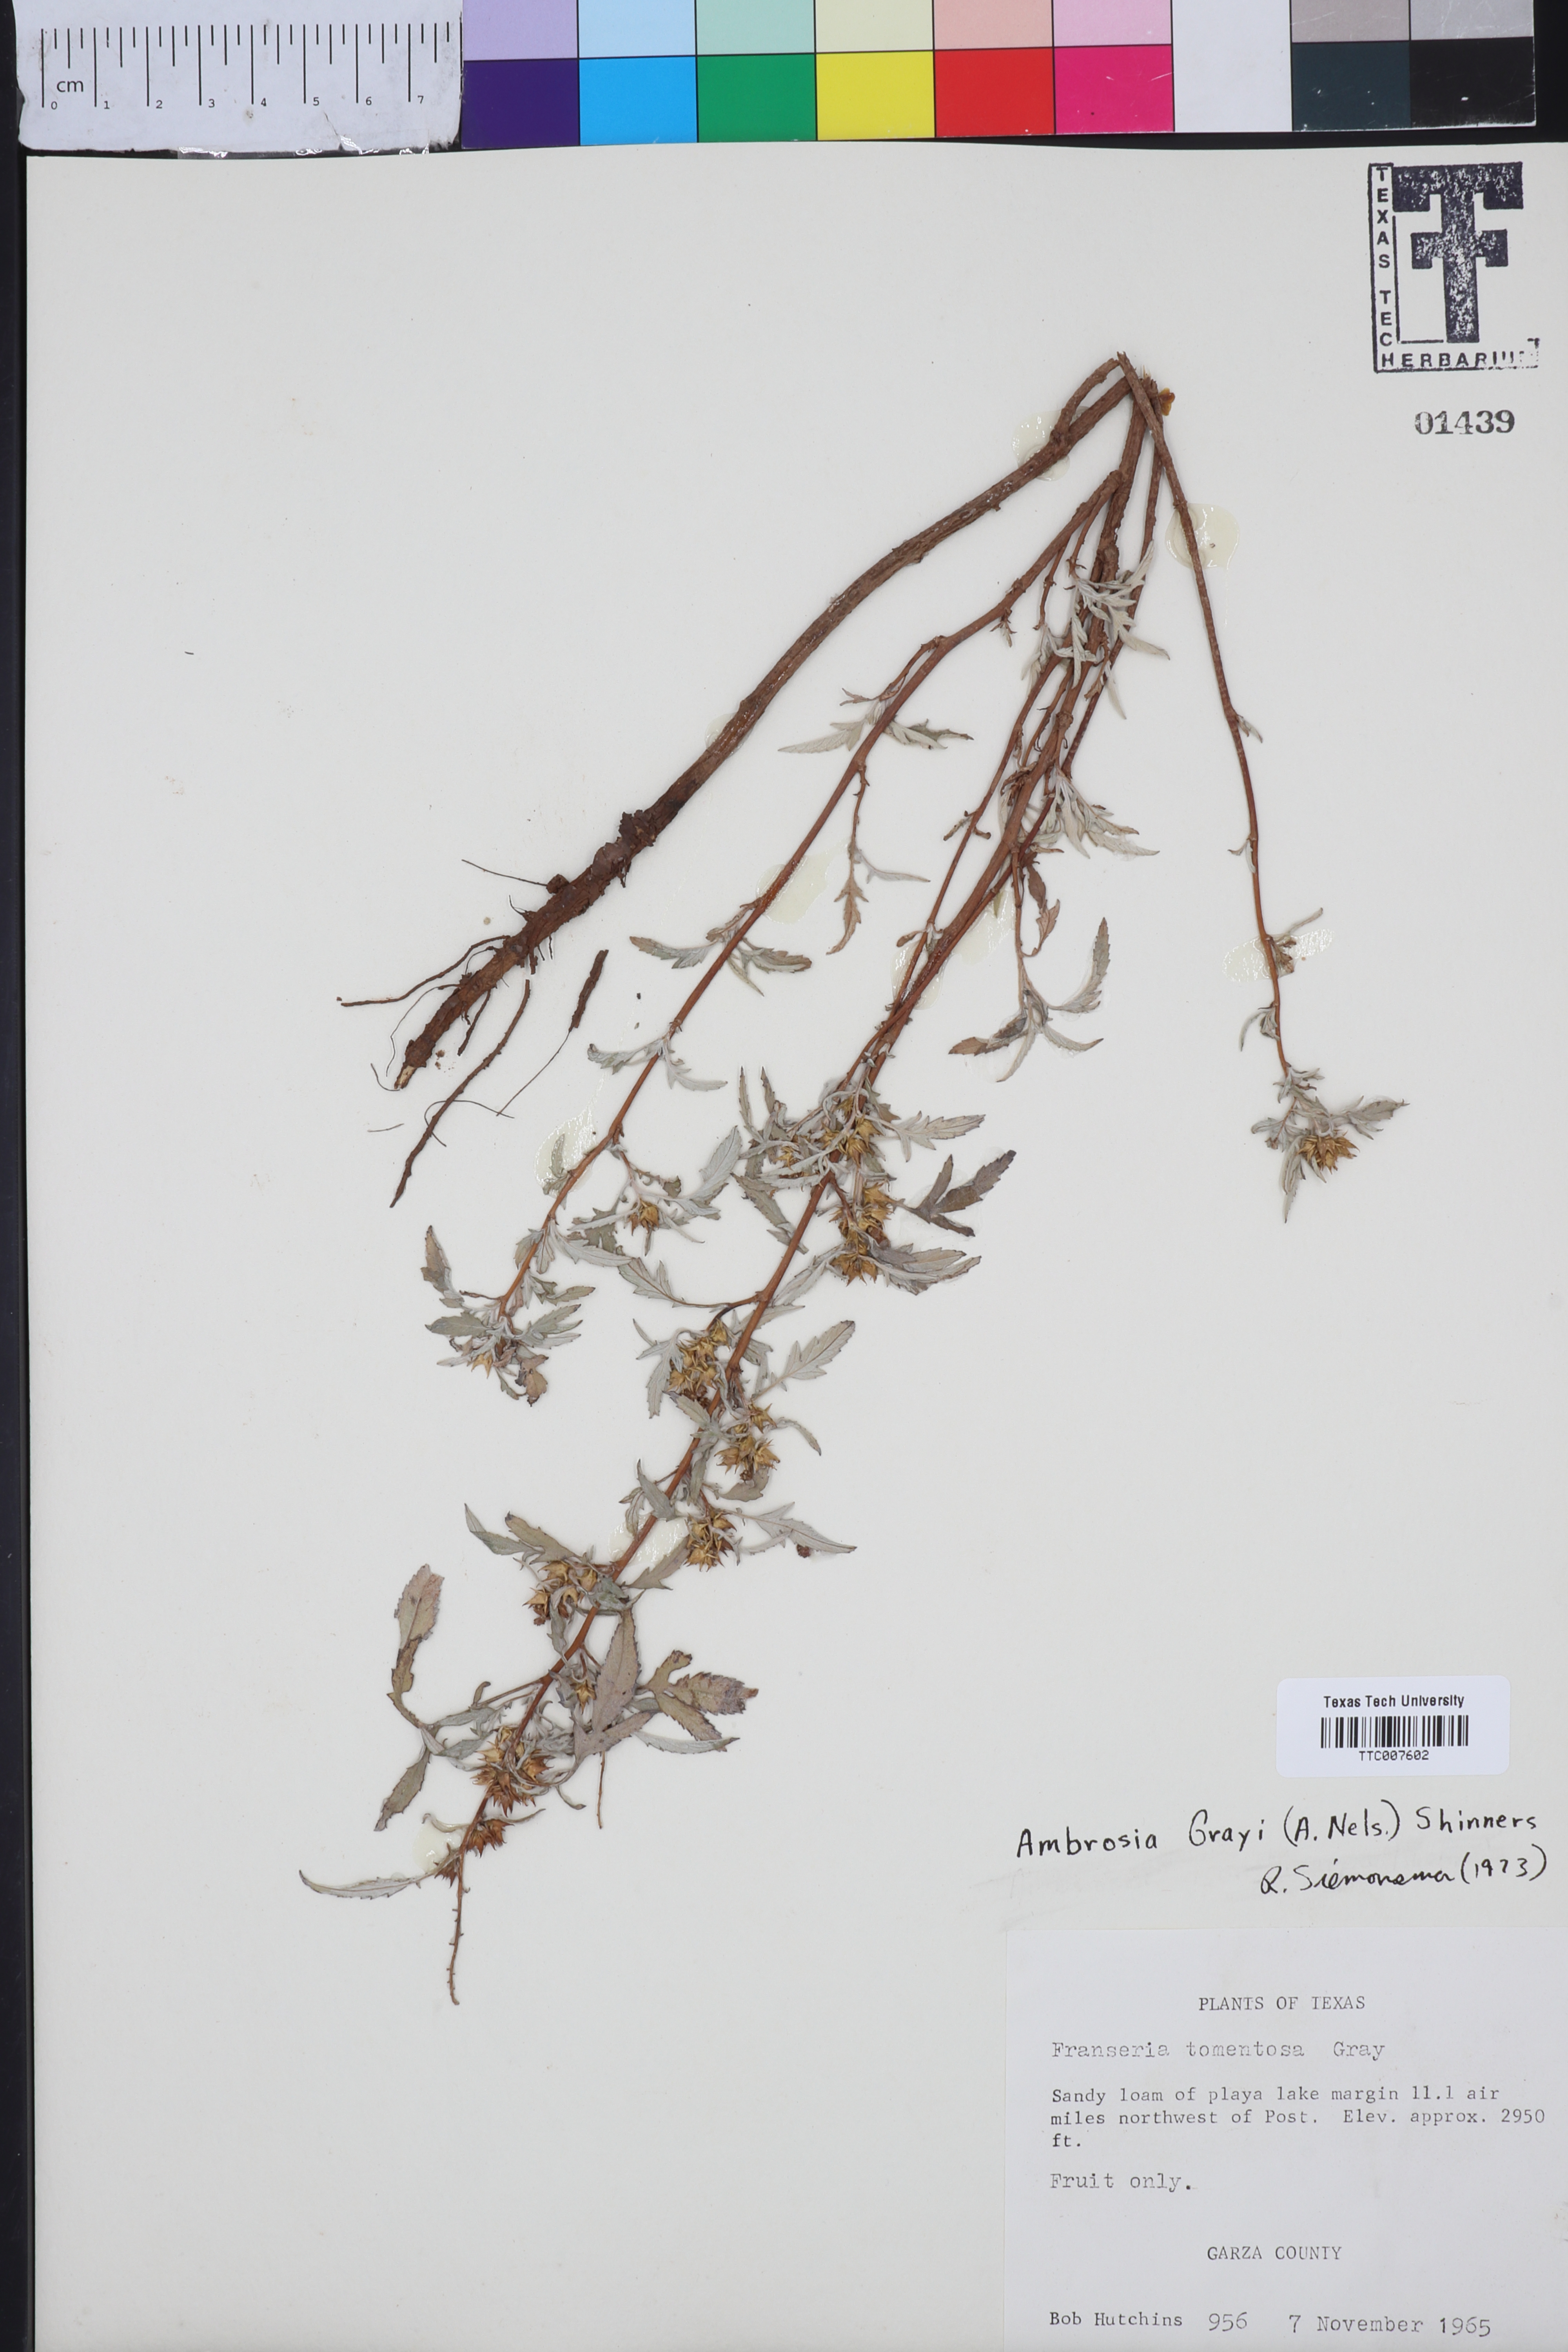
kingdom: Plantae
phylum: Tracheophyta
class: Magnoliopsida
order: Asterales
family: Asteraceae
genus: Ambrosia
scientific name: Ambrosia grayi
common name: Bur ragweed
